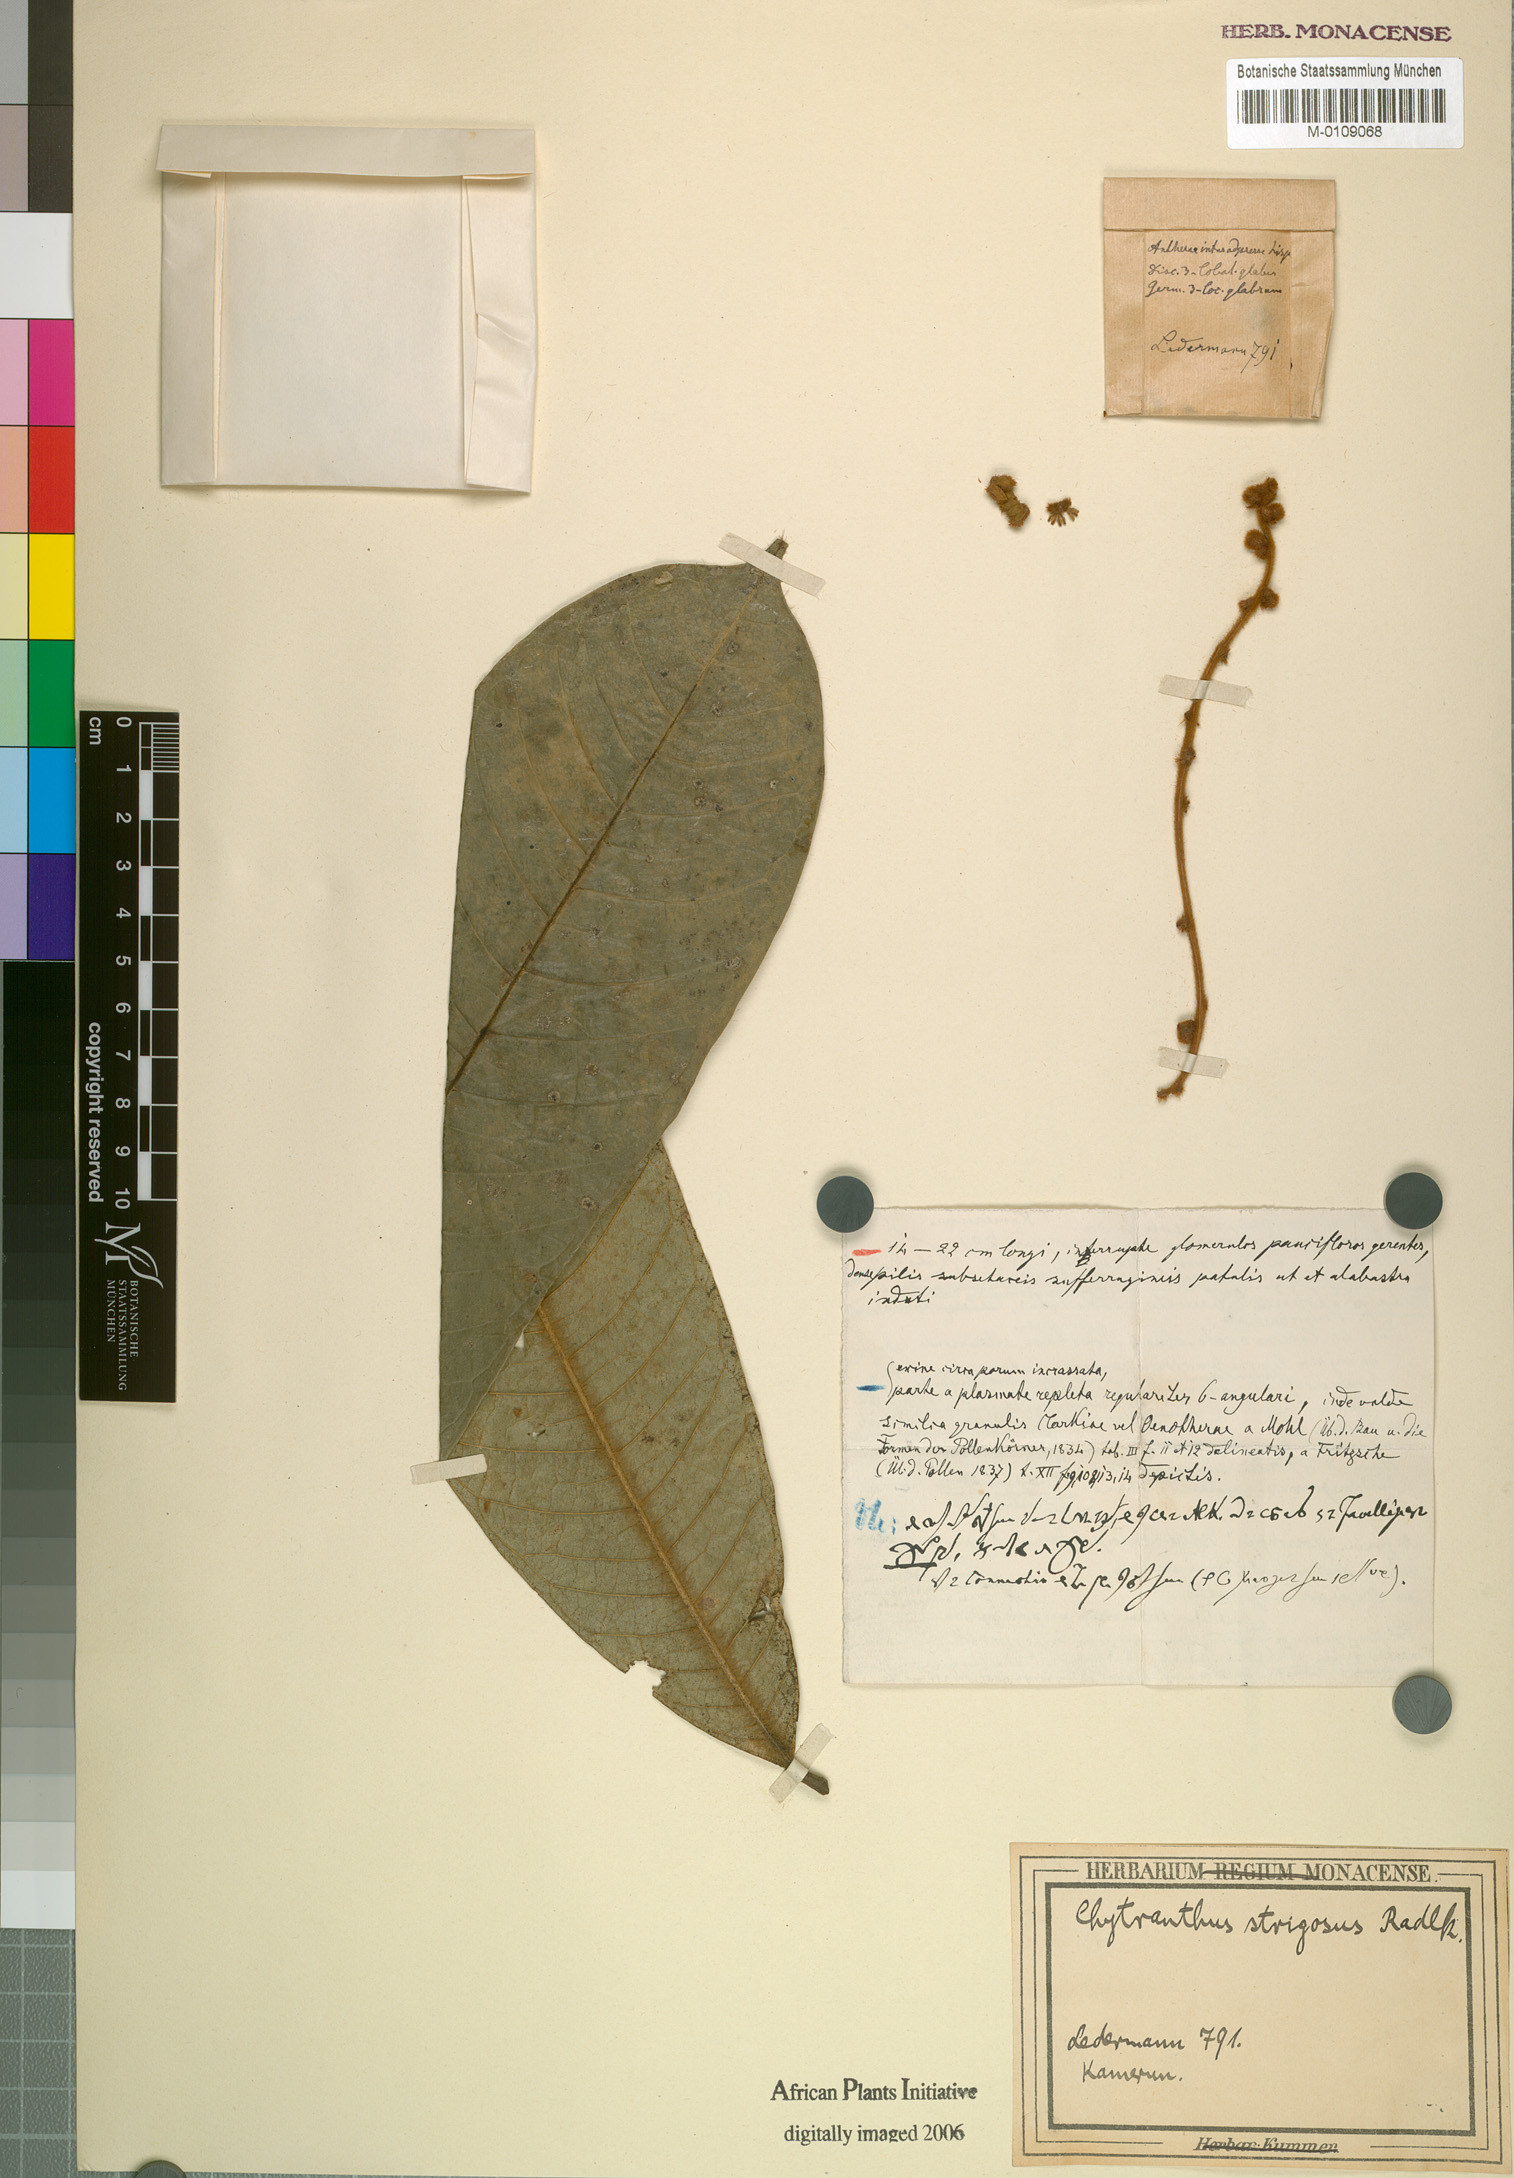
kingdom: Plantae
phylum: Tracheophyta
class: Magnoliopsida
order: Sapindales
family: Sapindaceae
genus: Chytranthus
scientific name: Chytranthus strigosus
